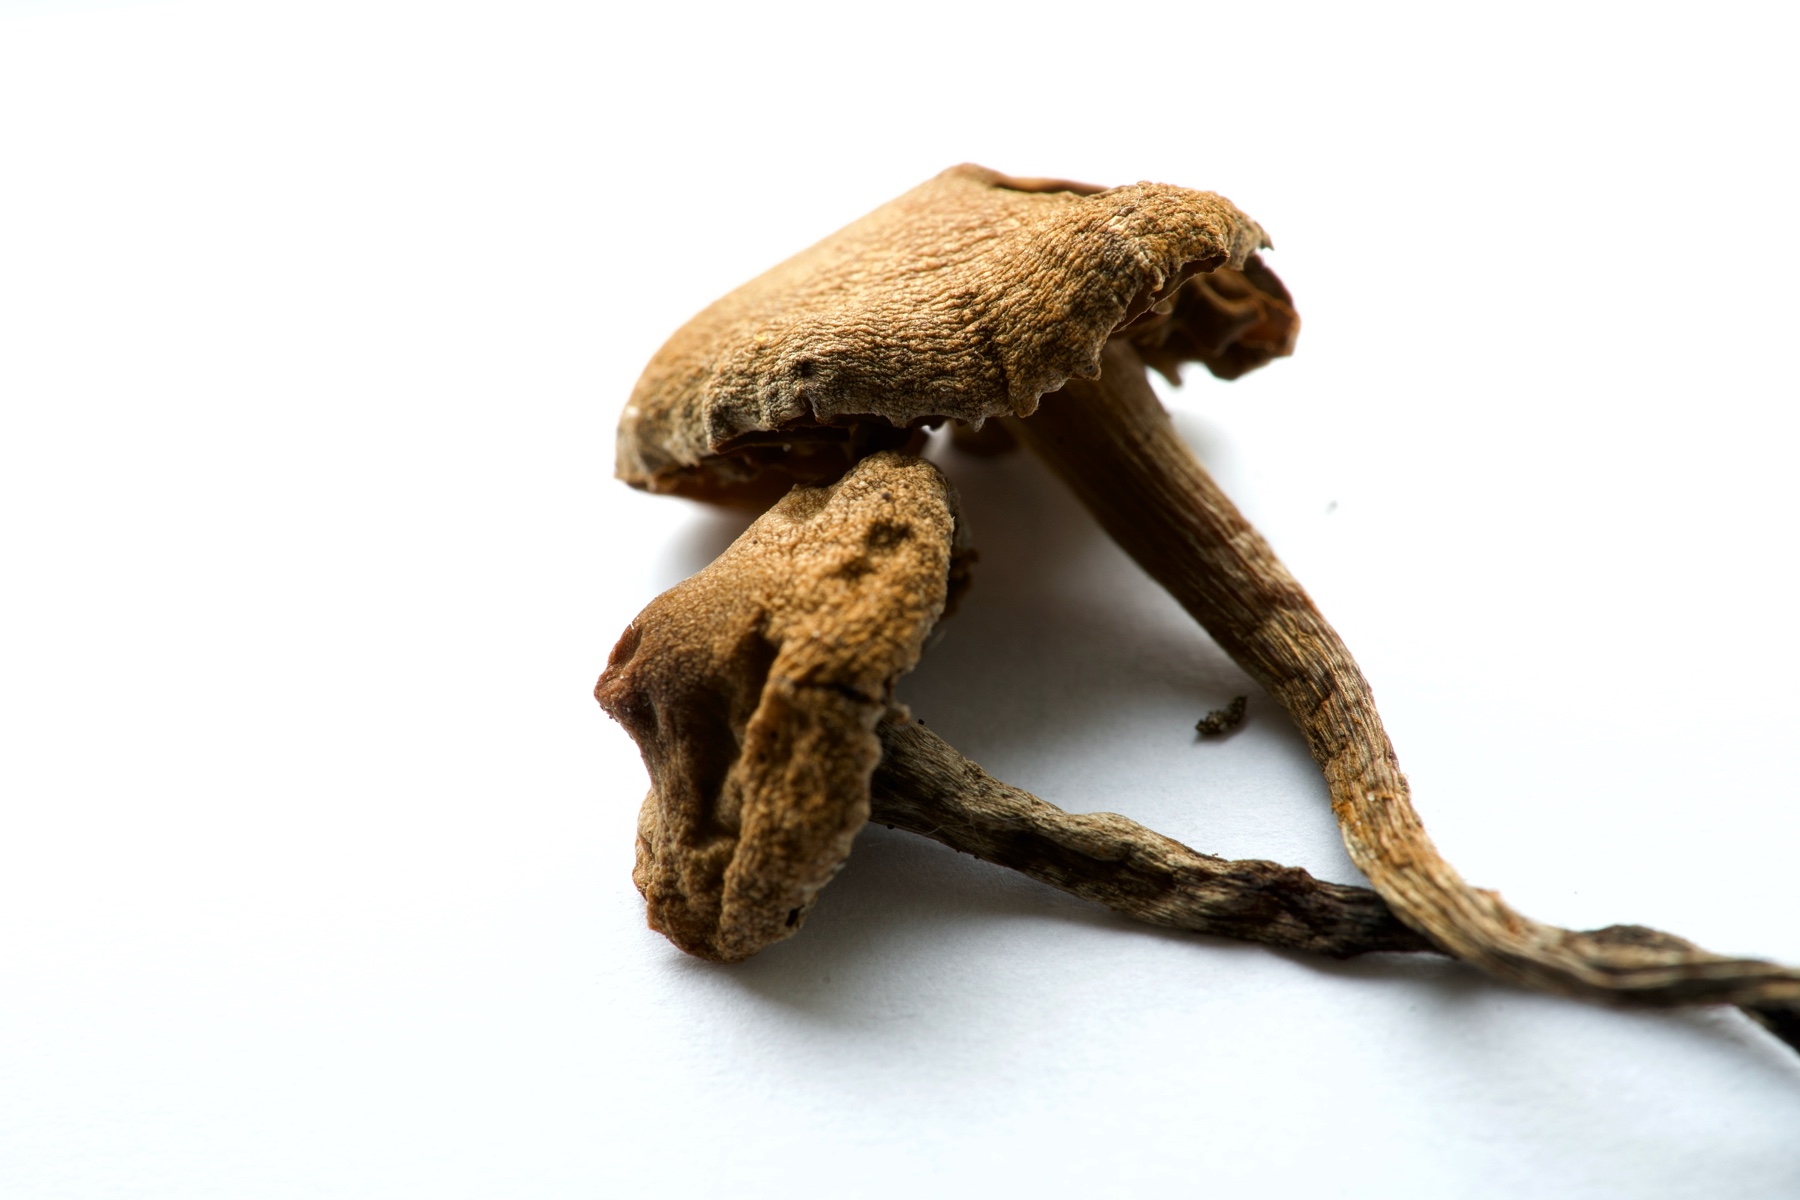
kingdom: Fungi
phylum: Basidiomycota
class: Agaricomycetes
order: Agaricales
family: Cortinariaceae
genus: Cortinarius
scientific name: Cortinarius
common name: pelargonie-slørhat
